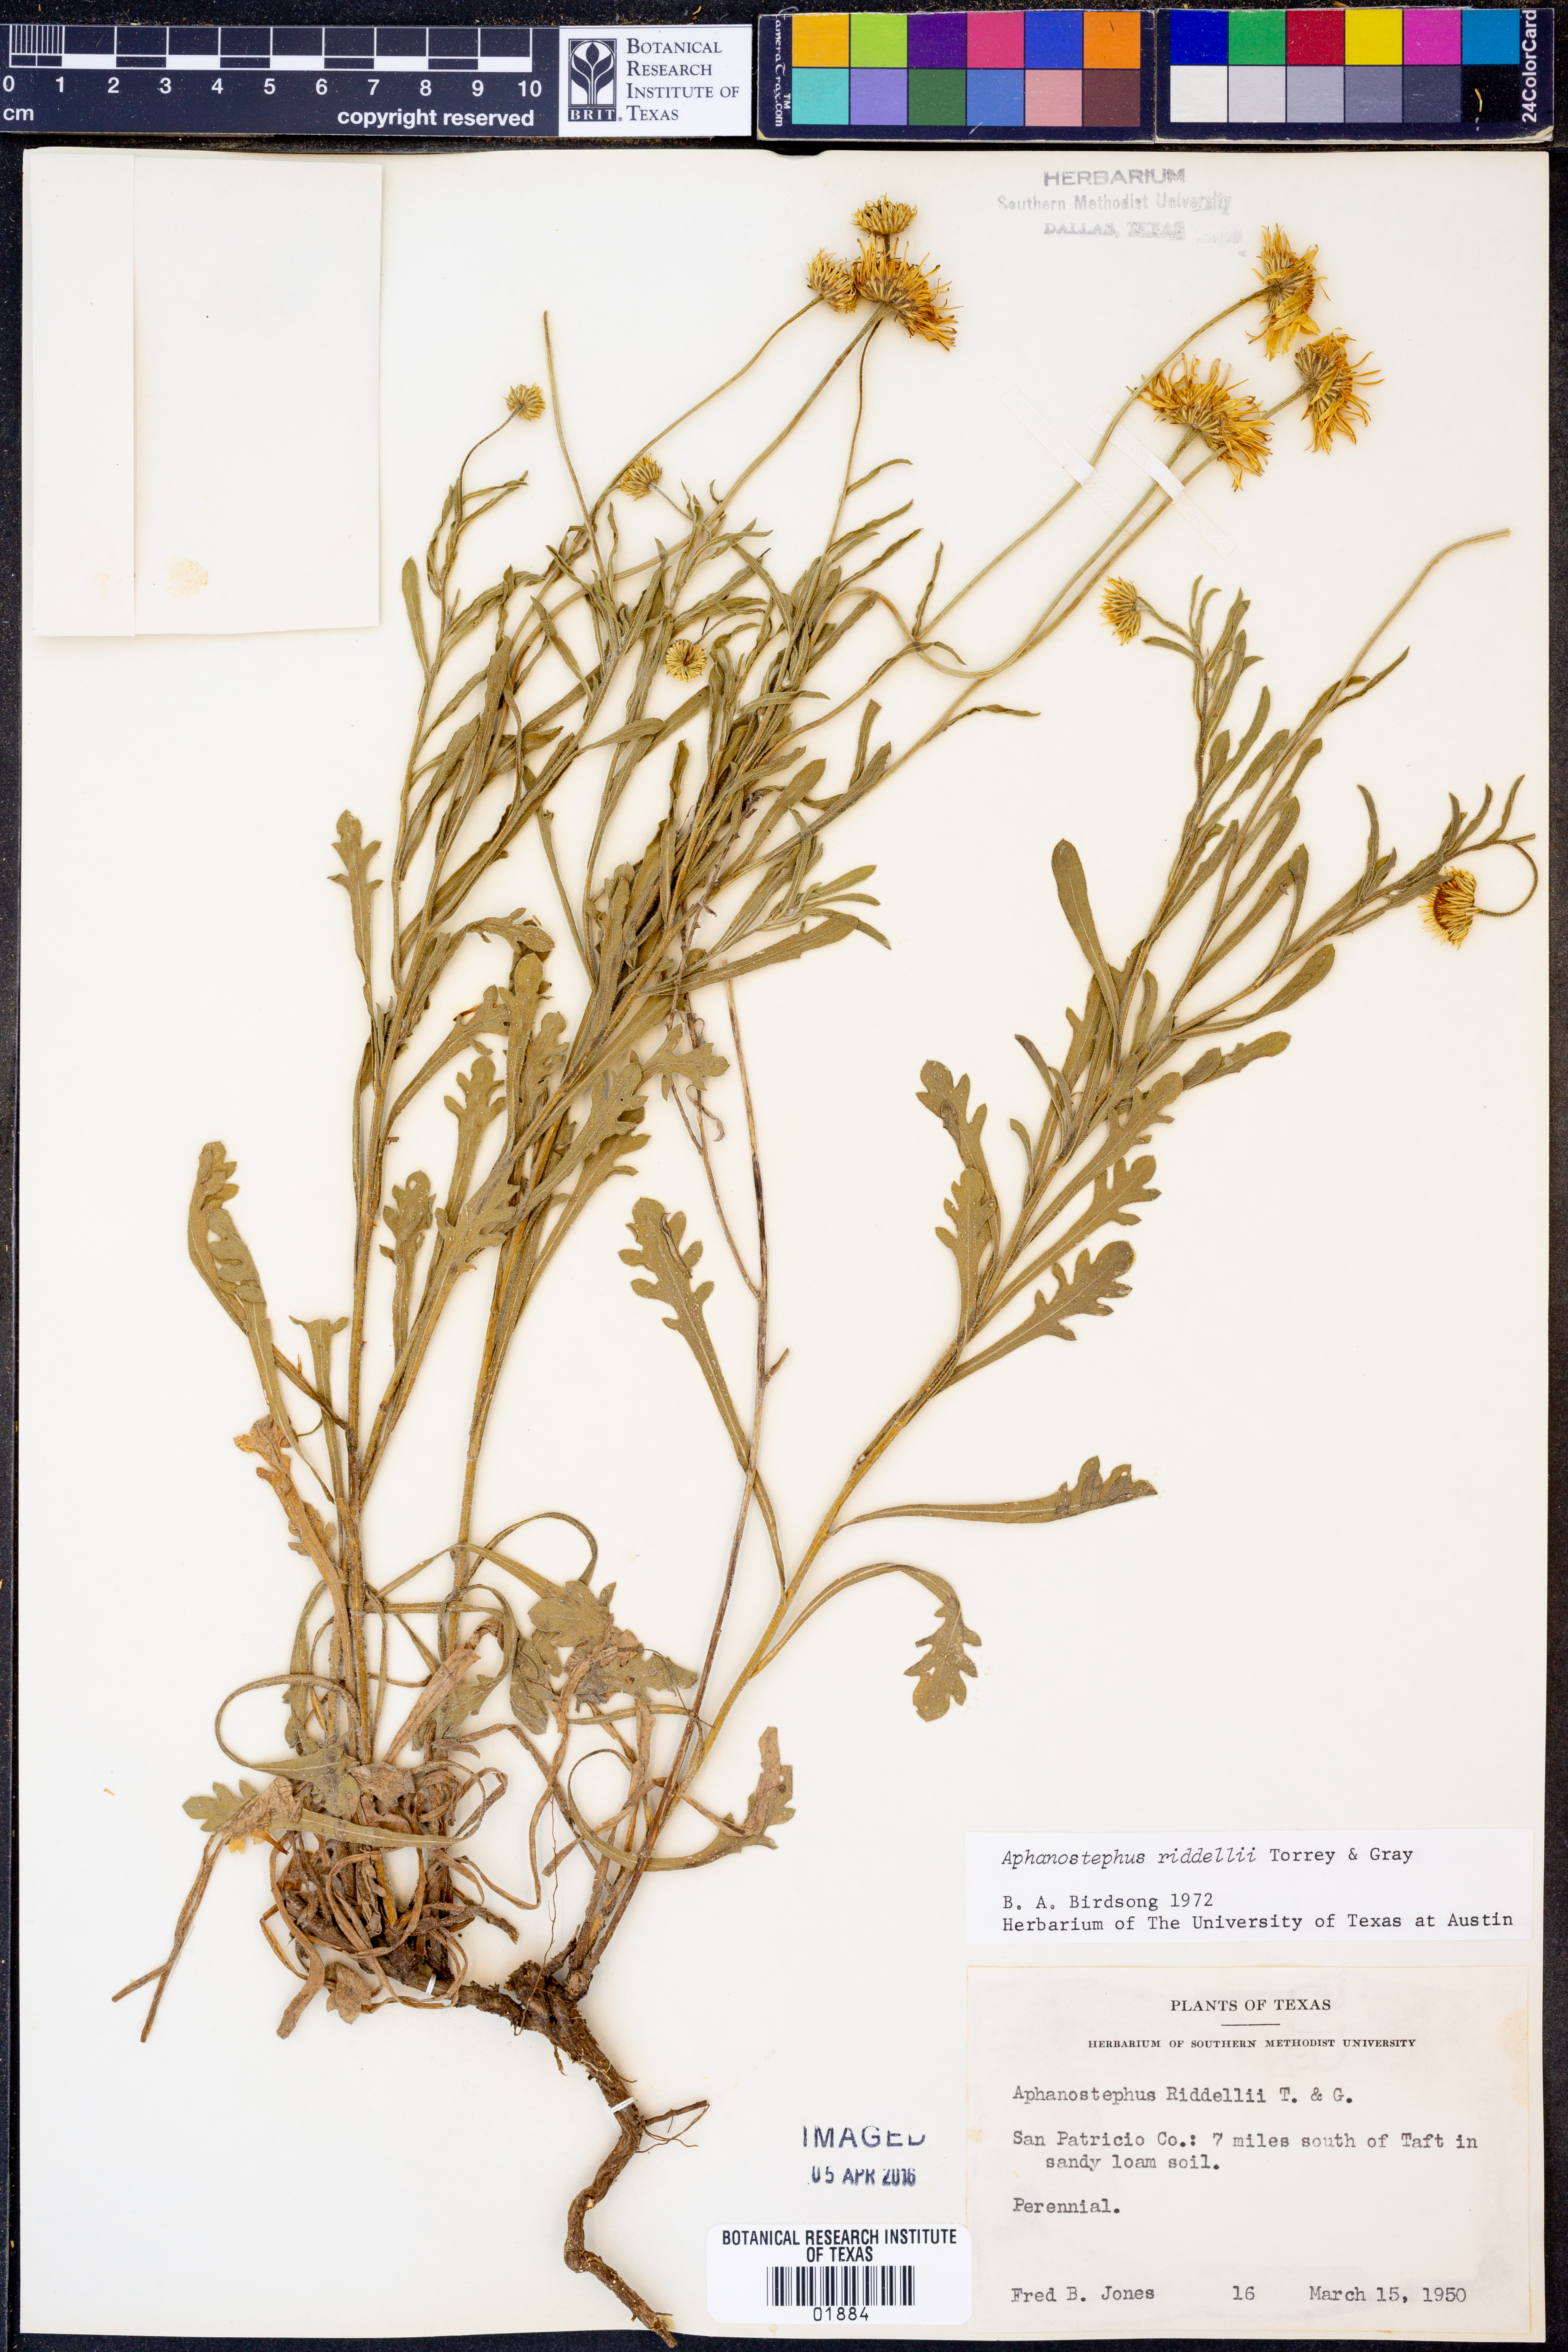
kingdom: Plantae
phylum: Tracheophyta
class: Magnoliopsida
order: Asterales
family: Asteraceae
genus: Aphanostephus
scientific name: Aphanostephus riddellii
